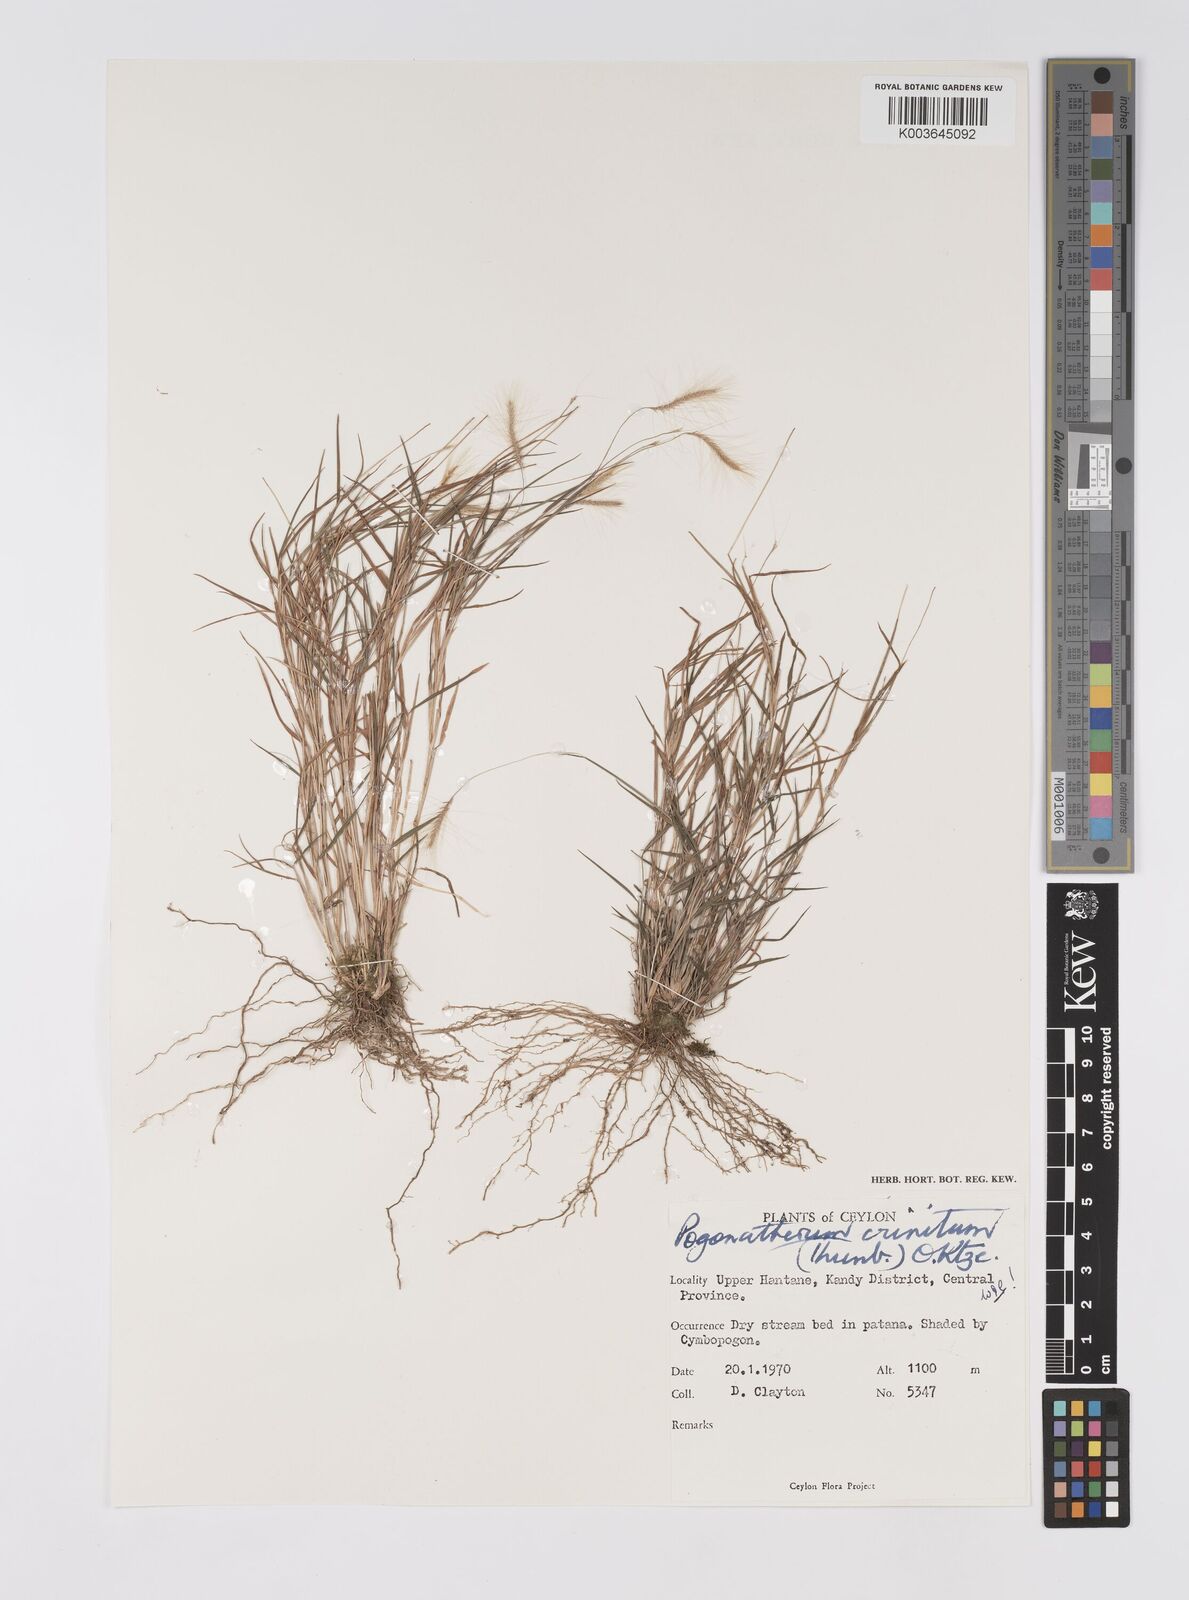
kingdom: Plantae
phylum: Tracheophyta
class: Liliopsida
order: Poales
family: Poaceae
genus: Pogonatherum
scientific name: Pogonatherum crinitum
